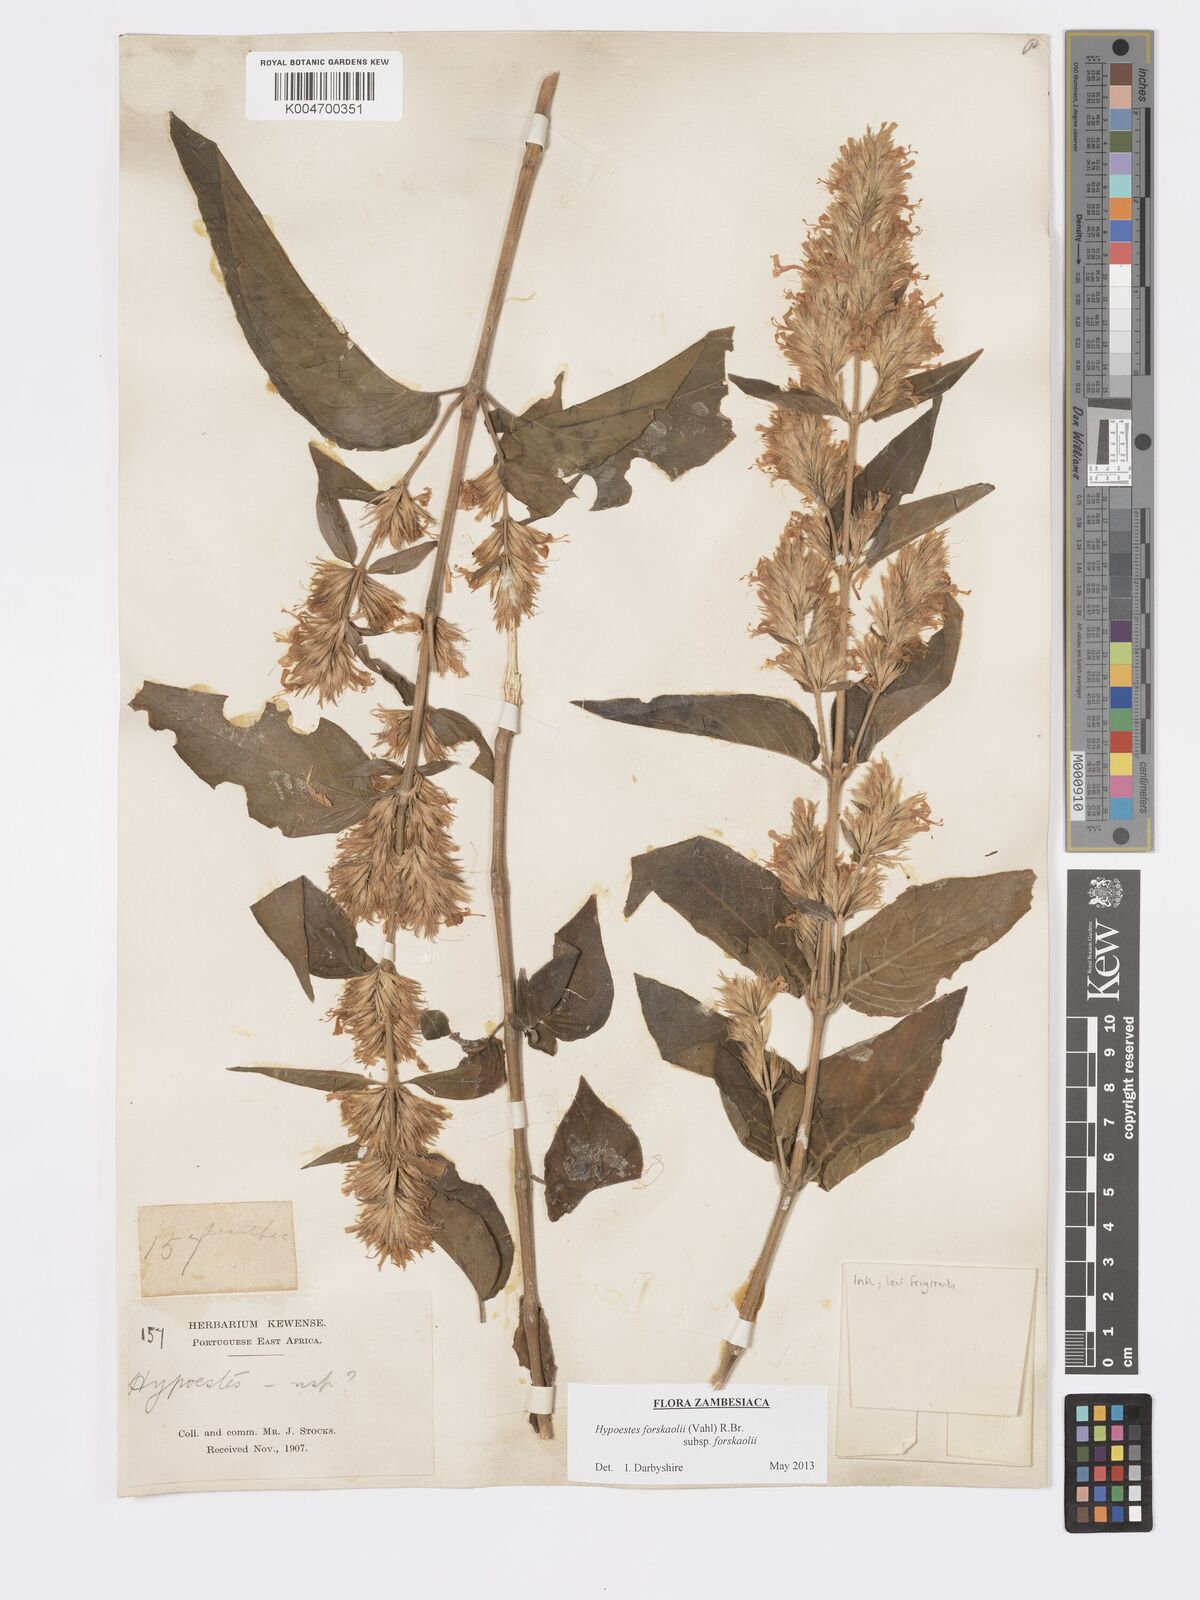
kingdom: Plantae
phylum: Tracheophyta
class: Magnoliopsida
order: Lamiales
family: Acanthaceae
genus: Hypoestes
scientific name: Hypoestes forskaolii
